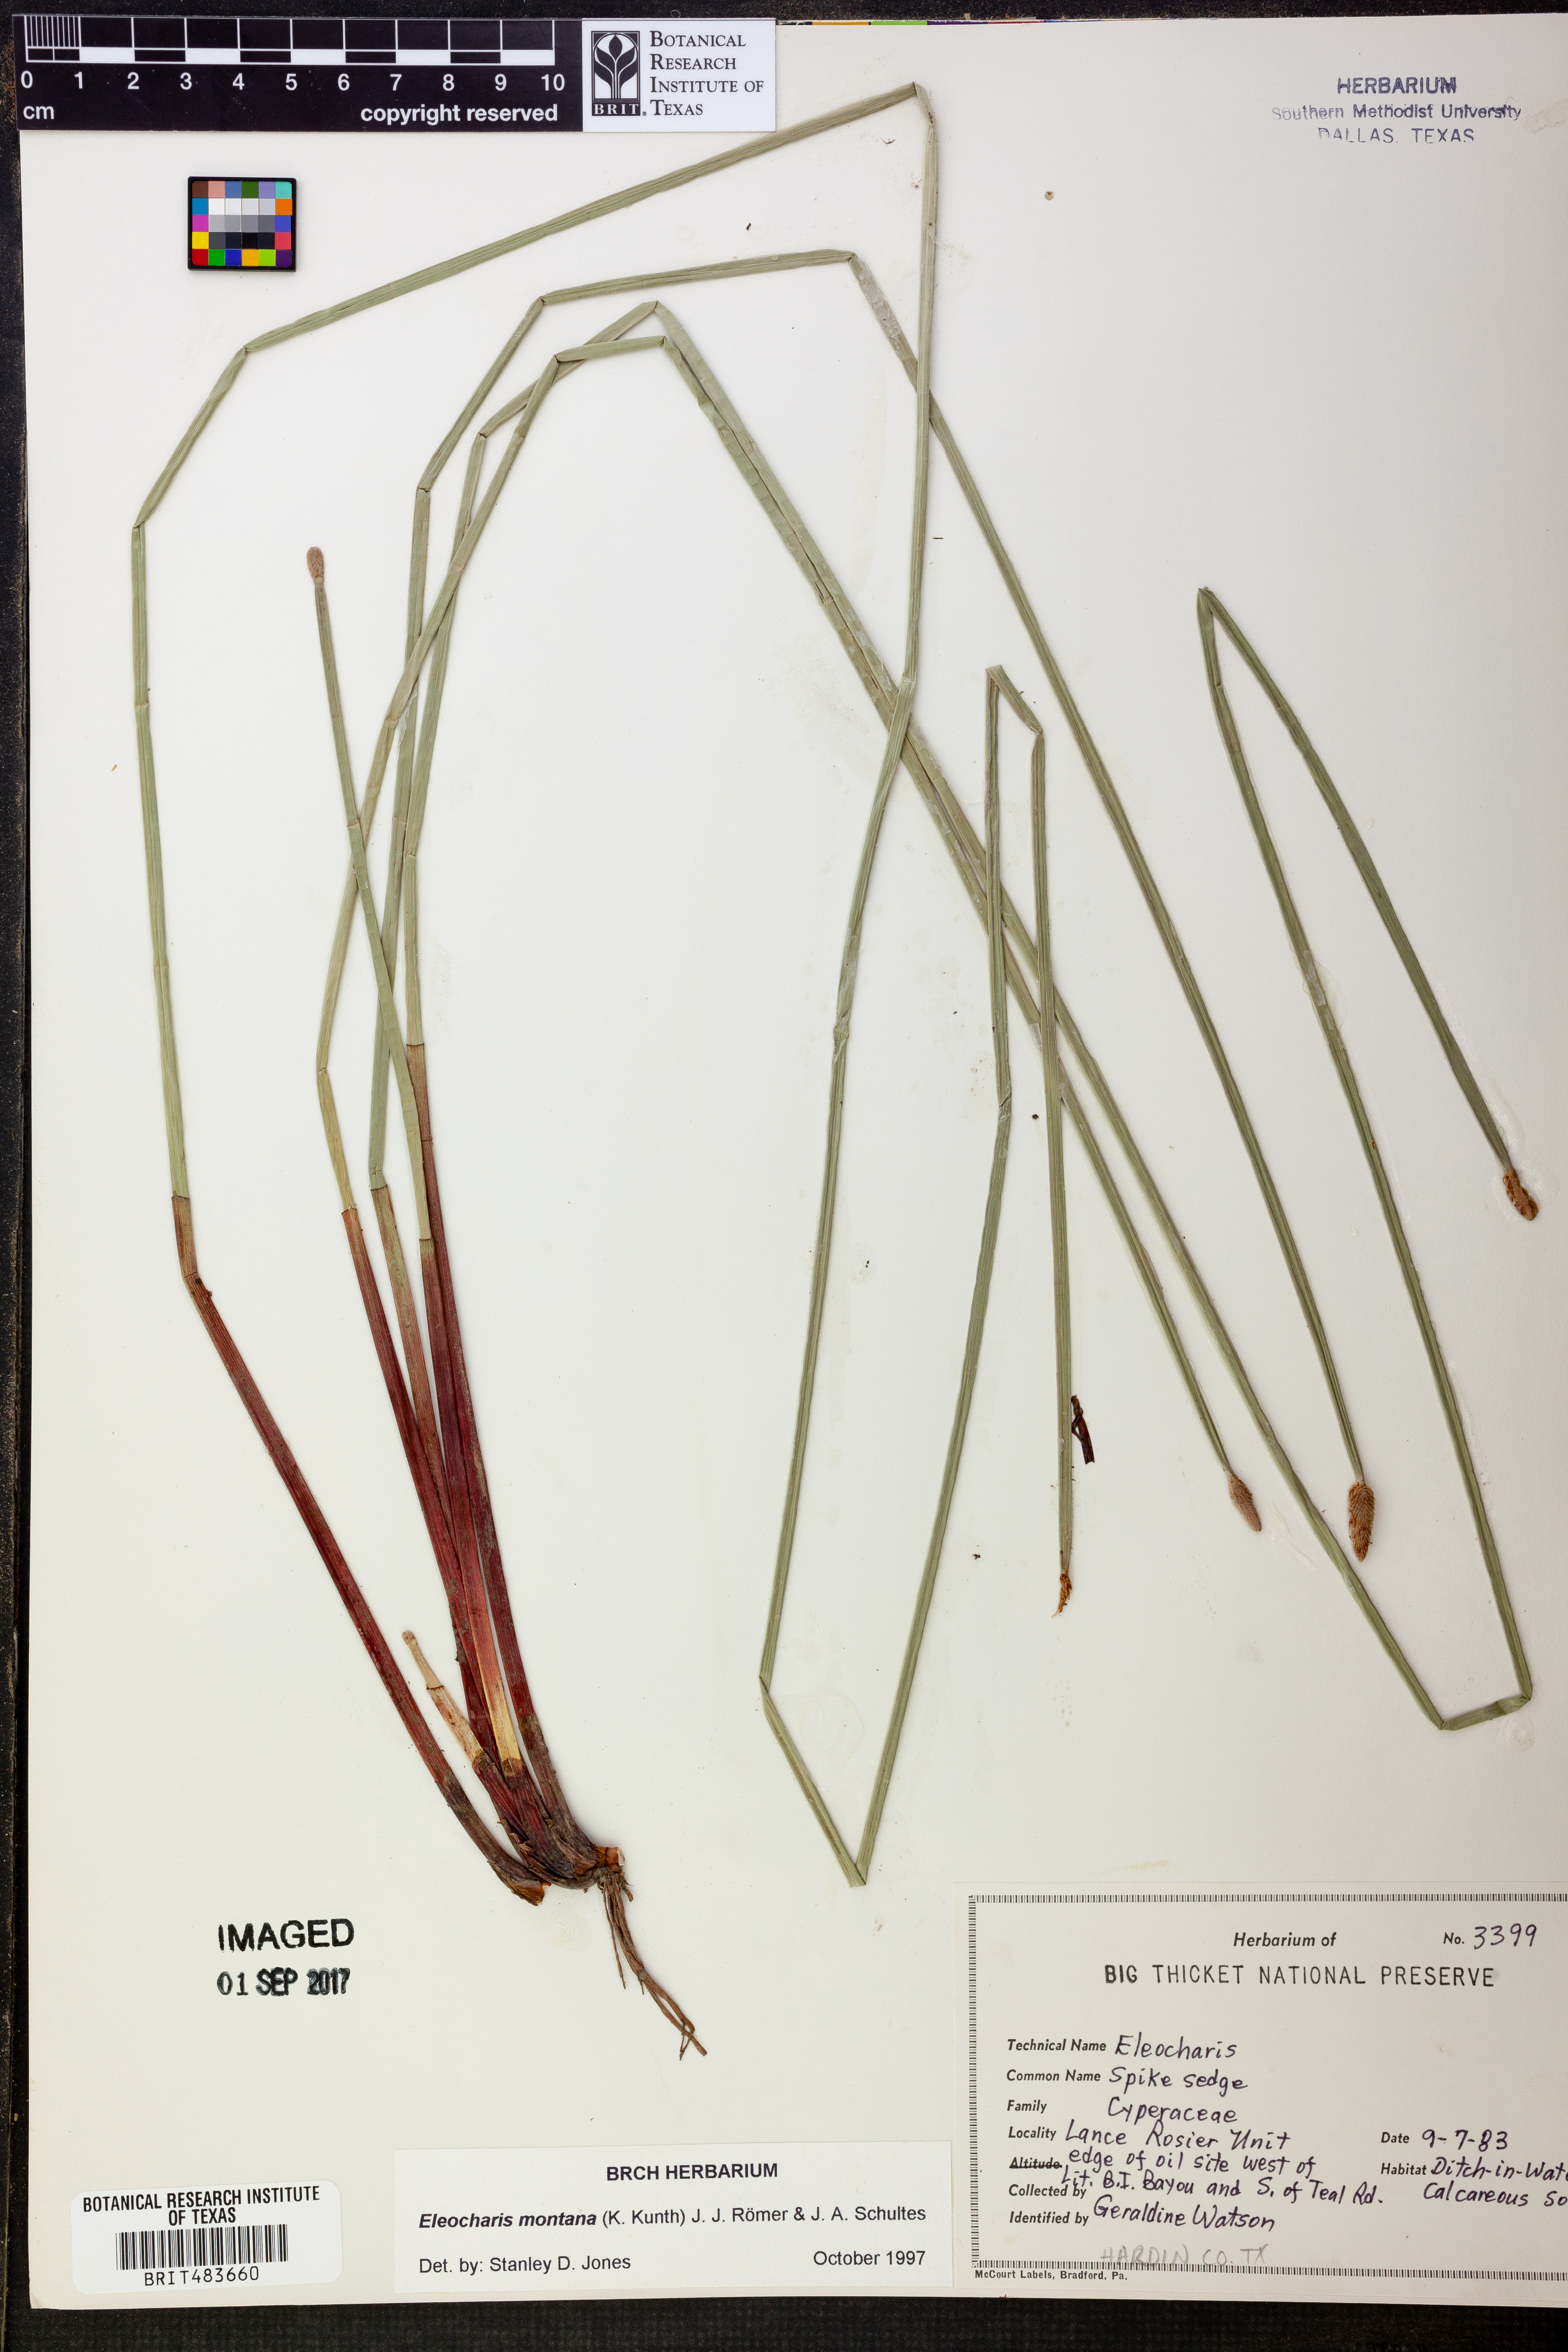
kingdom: Plantae
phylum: Tracheophyta
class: Liliopsida
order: Poales
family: Cyperaceae
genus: Eleocharis
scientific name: Eleocharis montana
